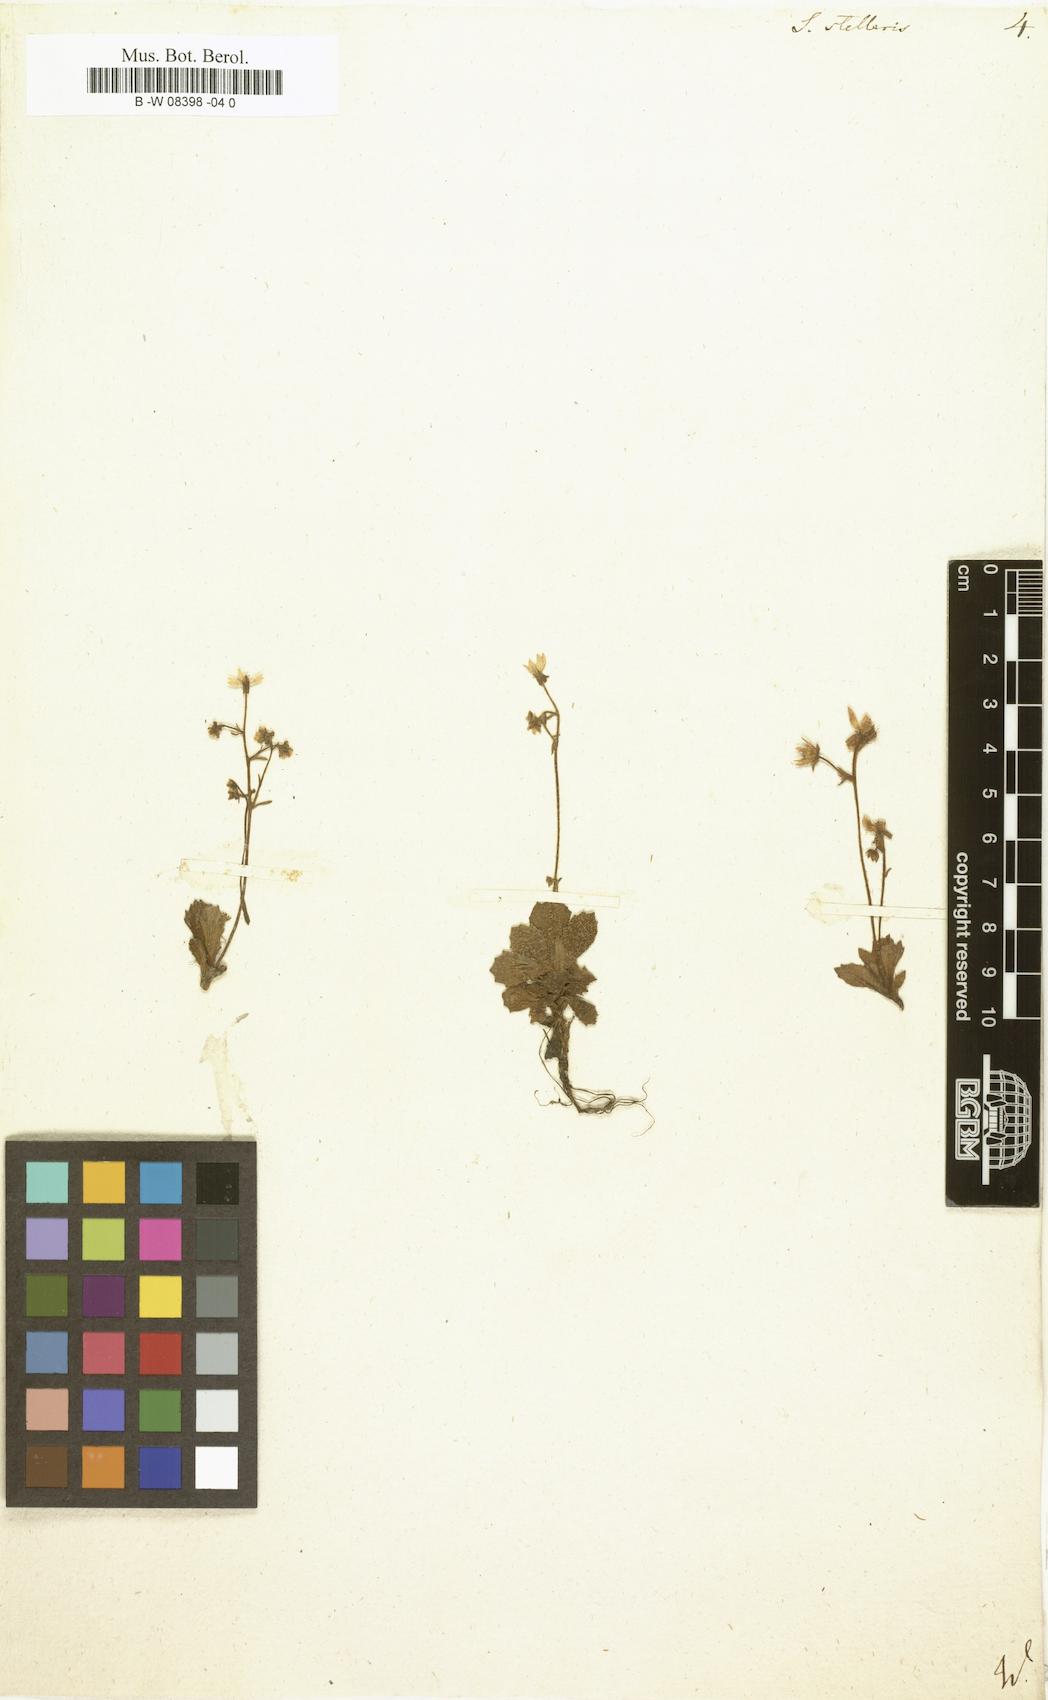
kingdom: Plantae
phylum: Tracheophyta
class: Magnoliopsida
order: Saxifragales
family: Saxifragaceae
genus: Micranthes
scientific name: Micranthes stellaris
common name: Starry saxifrage
